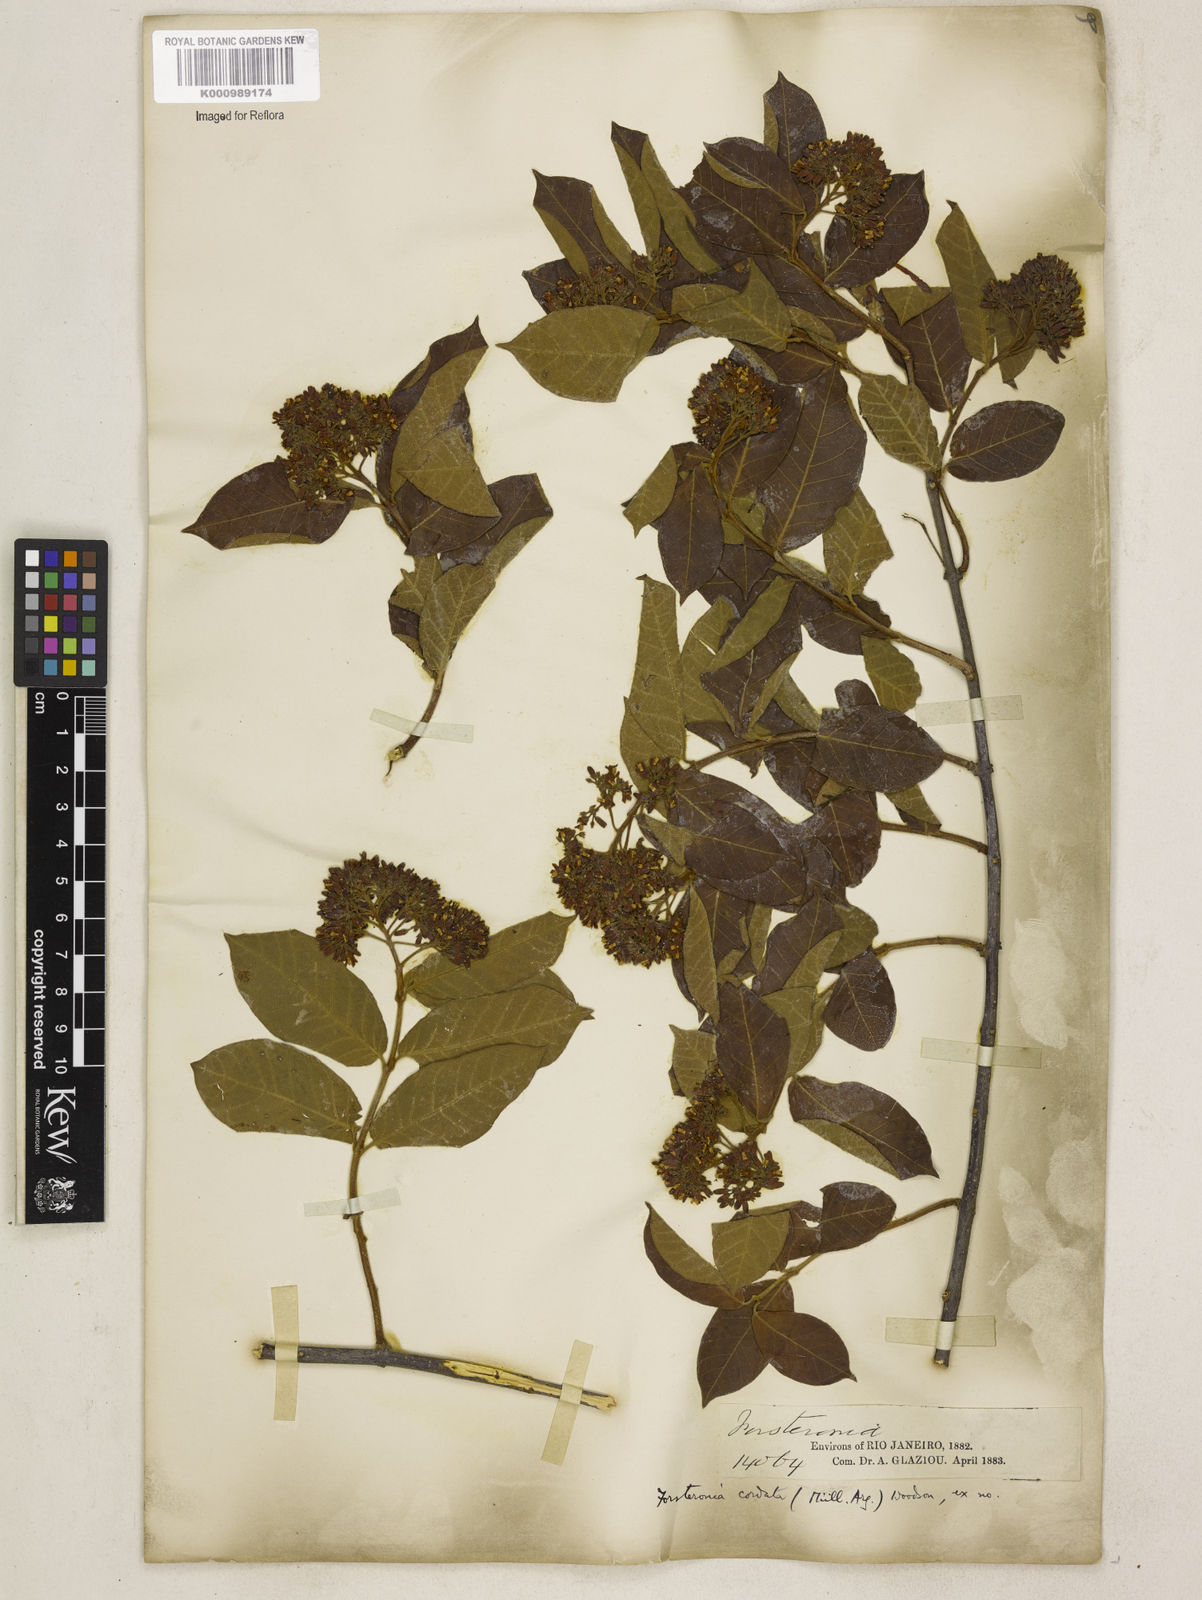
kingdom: Plantae
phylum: Tracheophyta
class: Magnoliopsida
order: Gentianales
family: Apocynaceae
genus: Forsteronia
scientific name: Forsteronia
